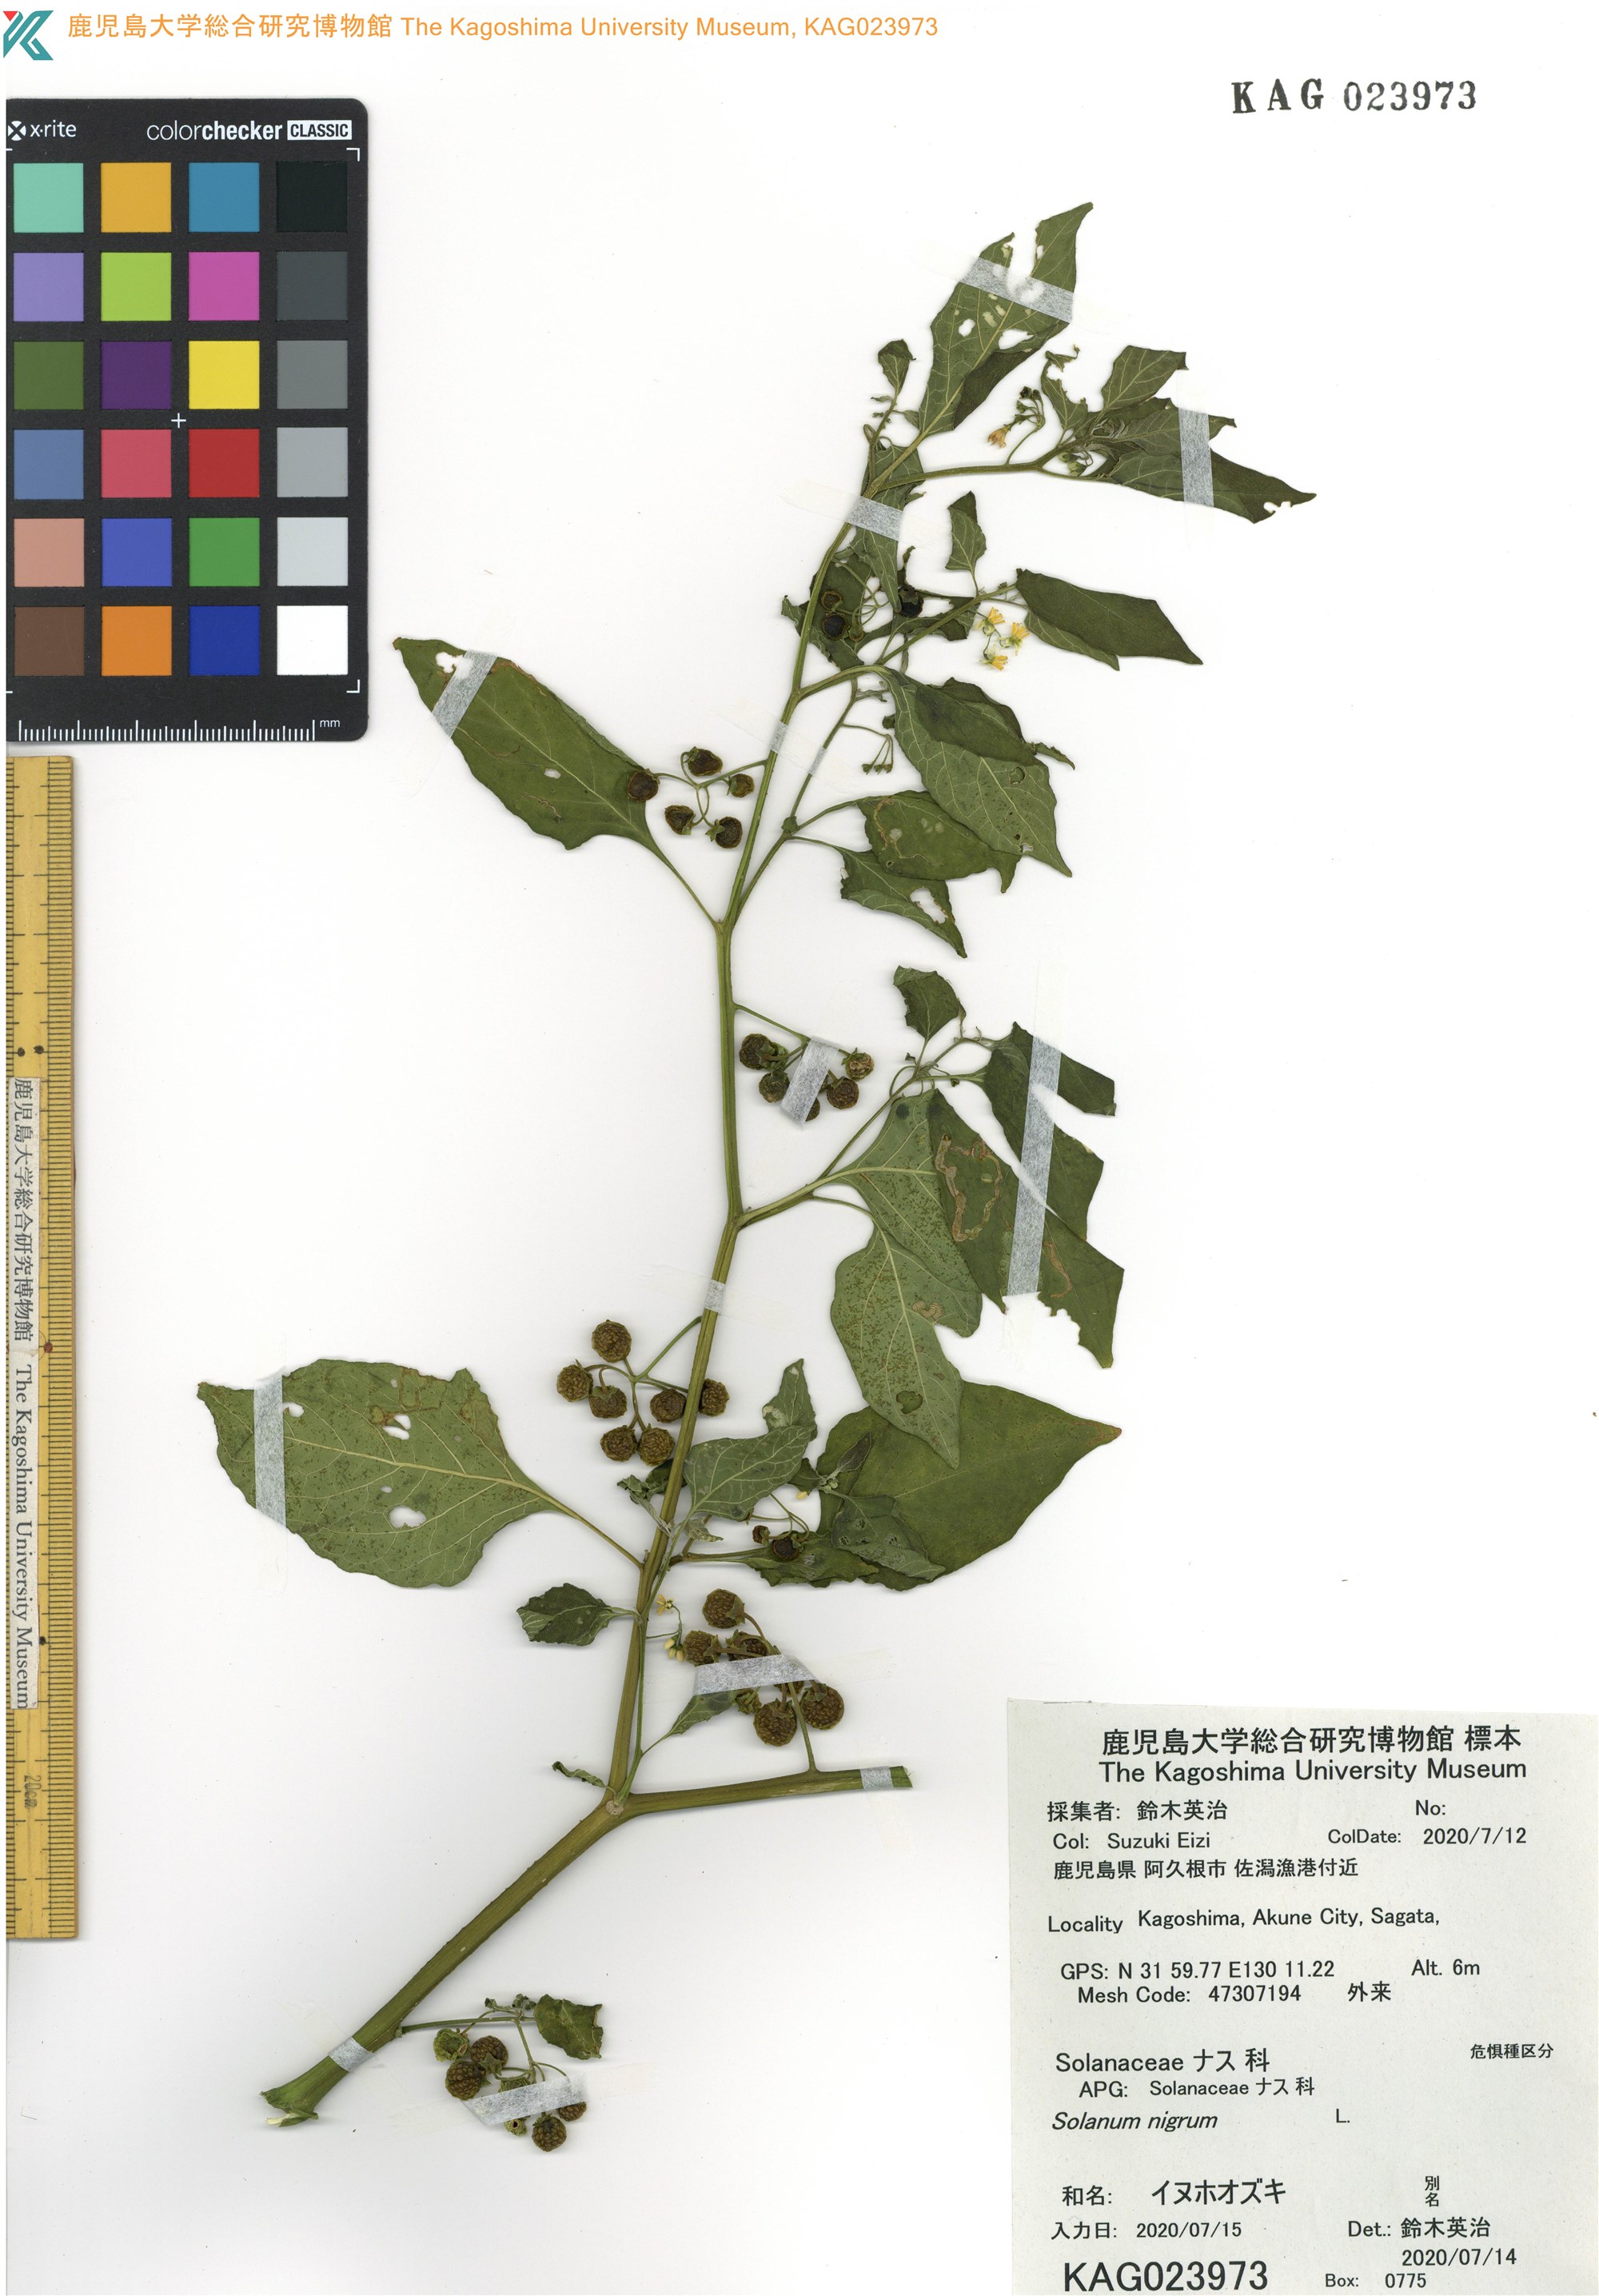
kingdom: Plantae
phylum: Tracheophyta
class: Magnoliopsida
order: Solanales
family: Solanaceae
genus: Solanum
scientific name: Solanum nigrum
